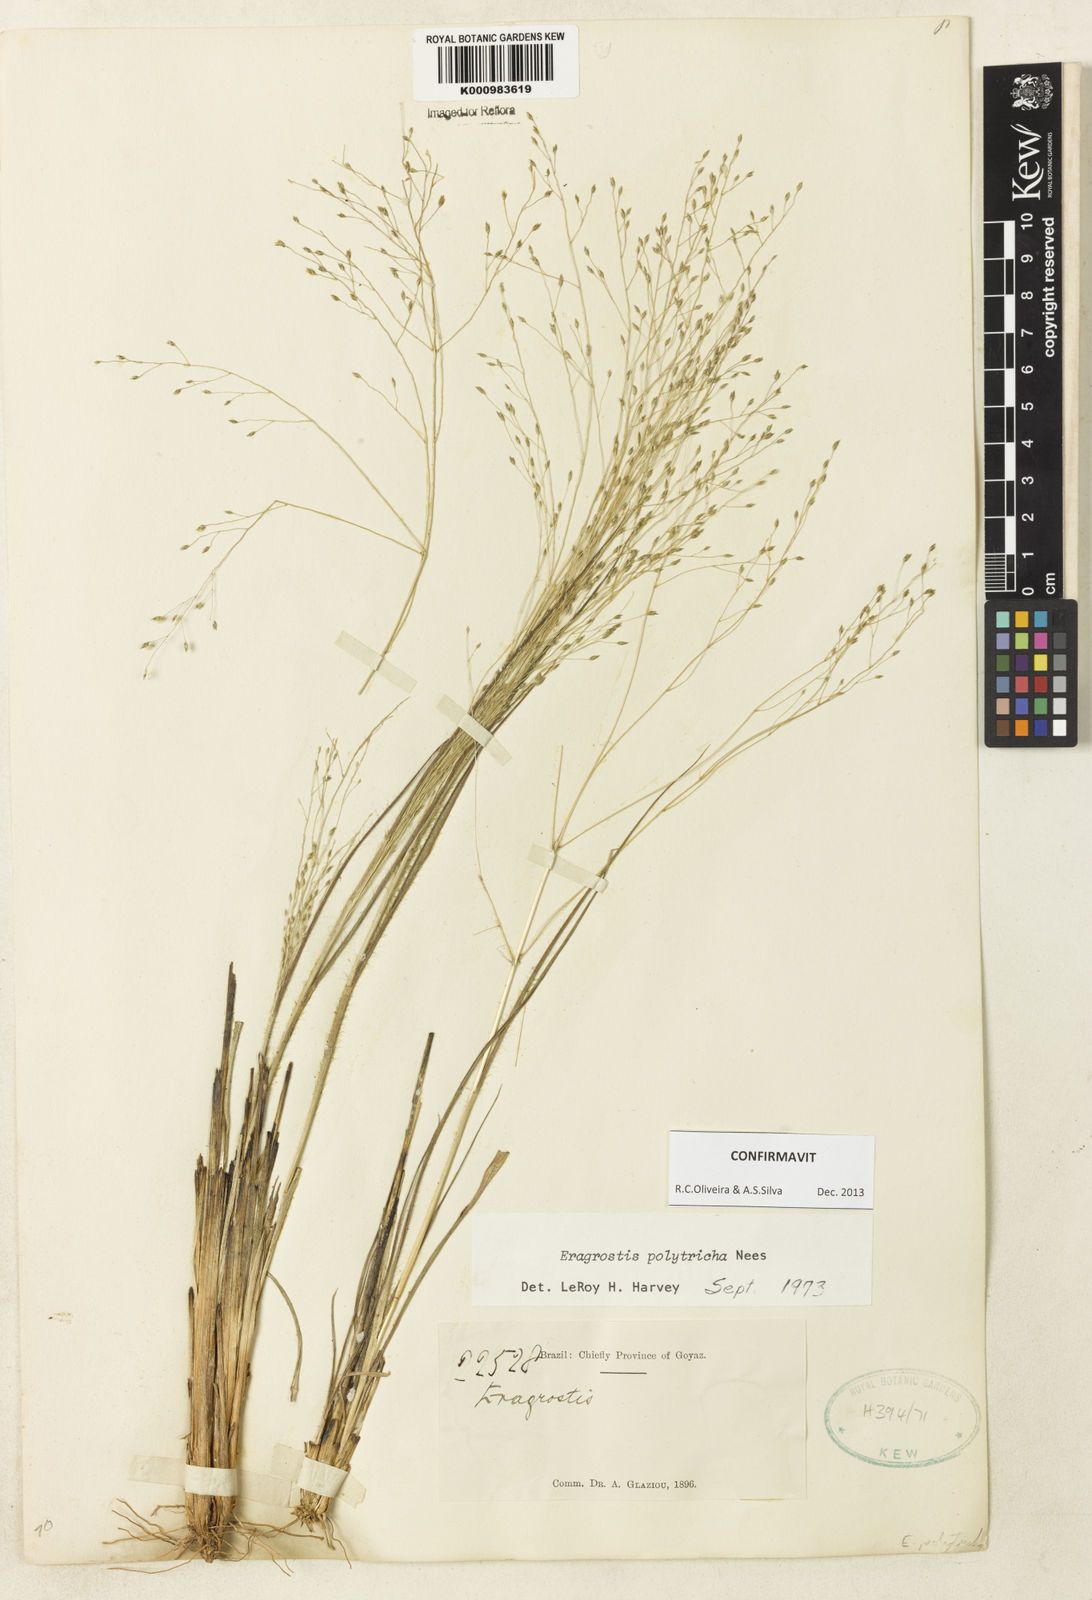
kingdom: Plantae
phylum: Tracheophyta
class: Liliopsida
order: Poales
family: Poaceae
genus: Eragrostis
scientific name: Eragrostis polytricha
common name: Hairy-sheath love grass
